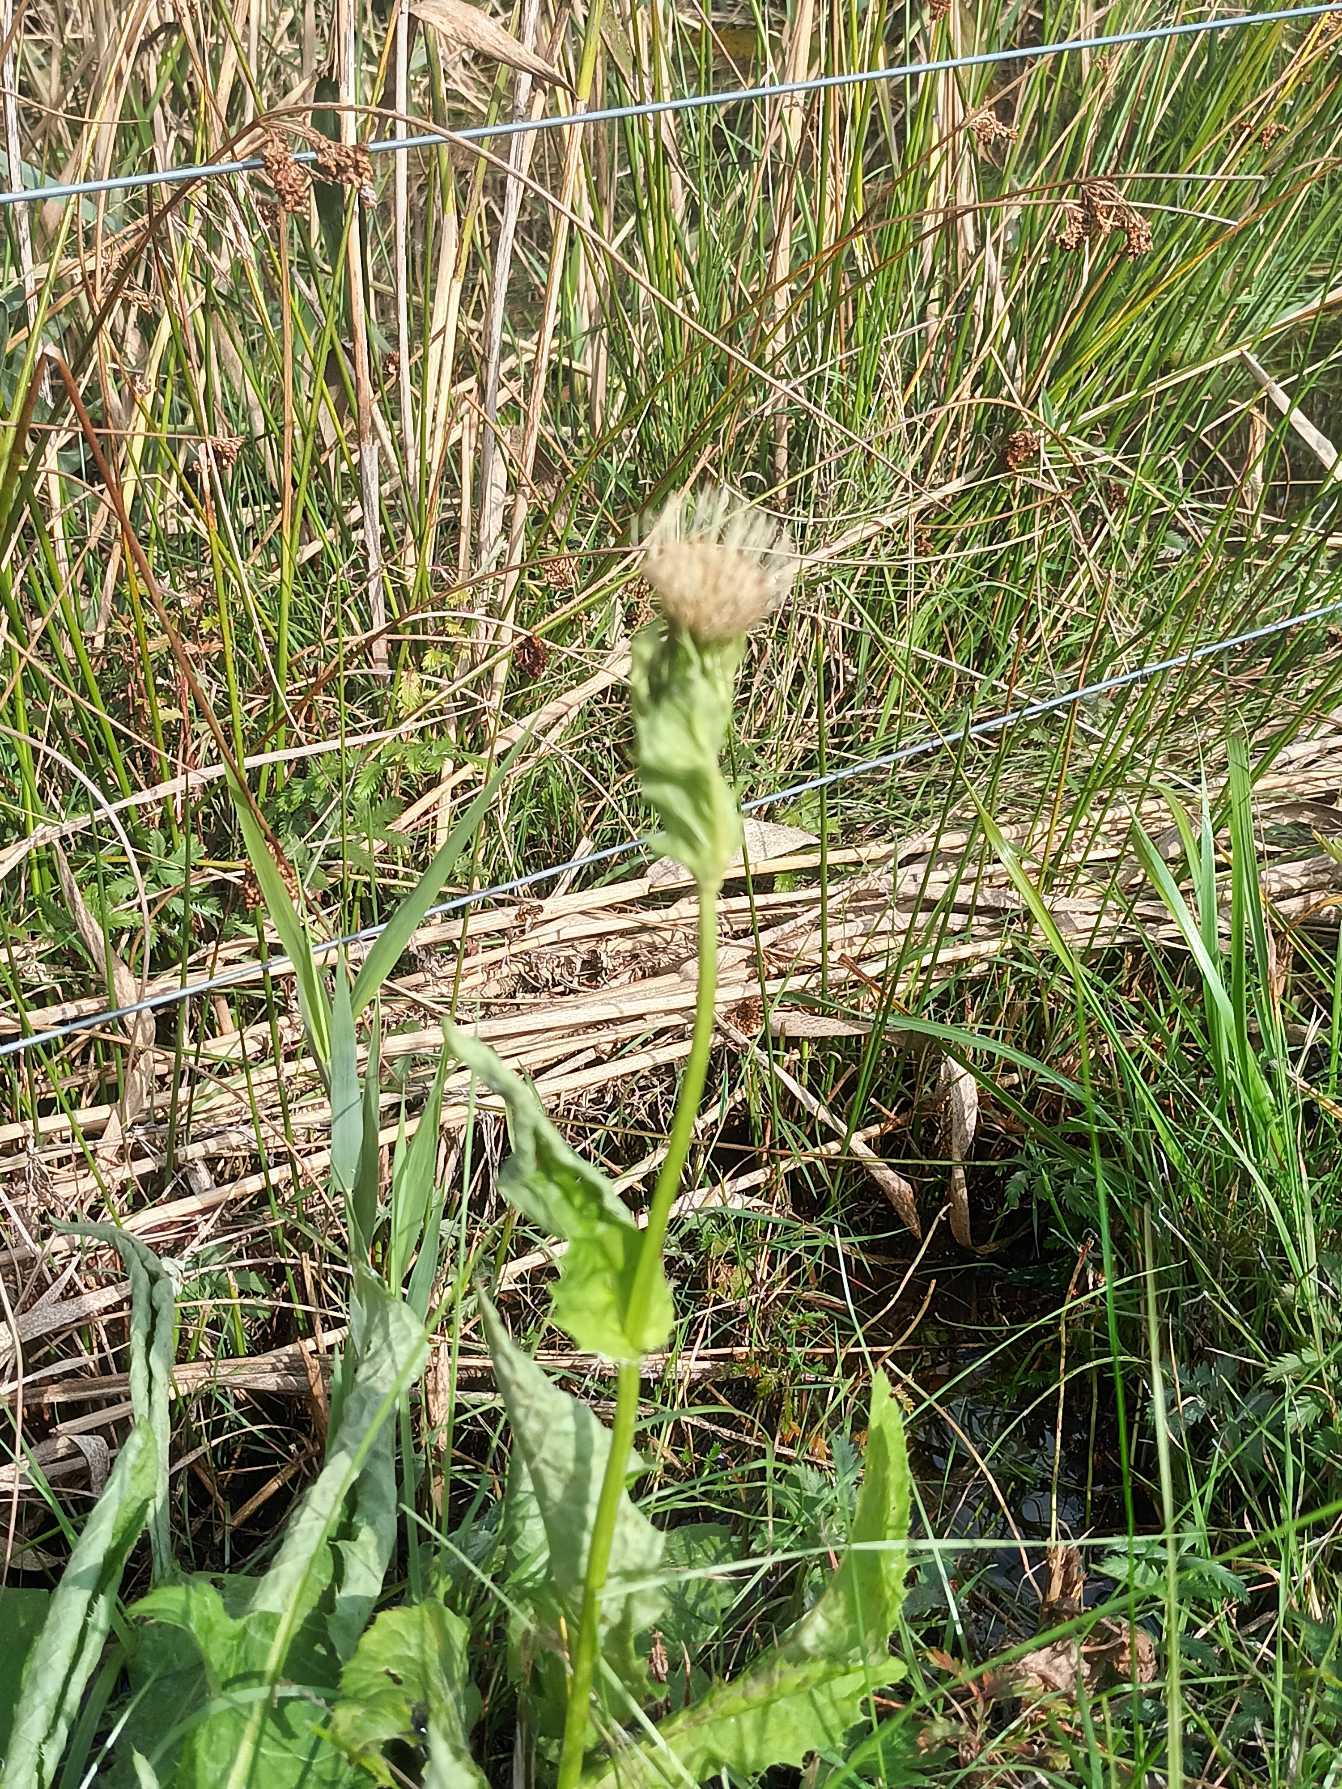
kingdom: Plantae
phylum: Tracheophyta
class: Magnoliopsida
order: Asterales
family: Asteraceae
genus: Cirsium
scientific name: Cirsium oleraceum
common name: Kål-tidsel
